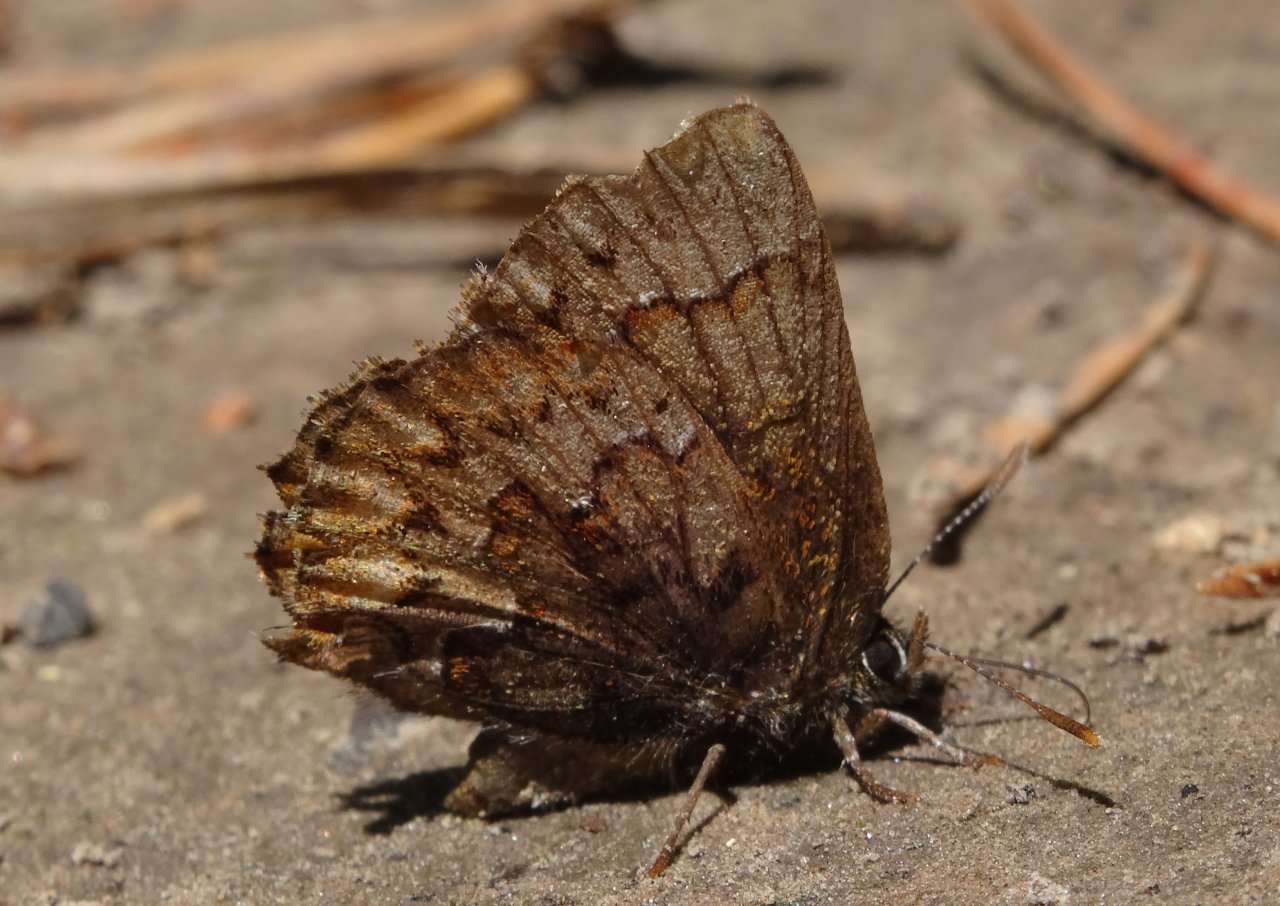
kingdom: Animalia
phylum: Arthropoda
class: Insecta
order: Lepidoptera
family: Lycaenidae
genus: Incisalia
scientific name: Incisalia eryphon
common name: Western Pine Elfin
